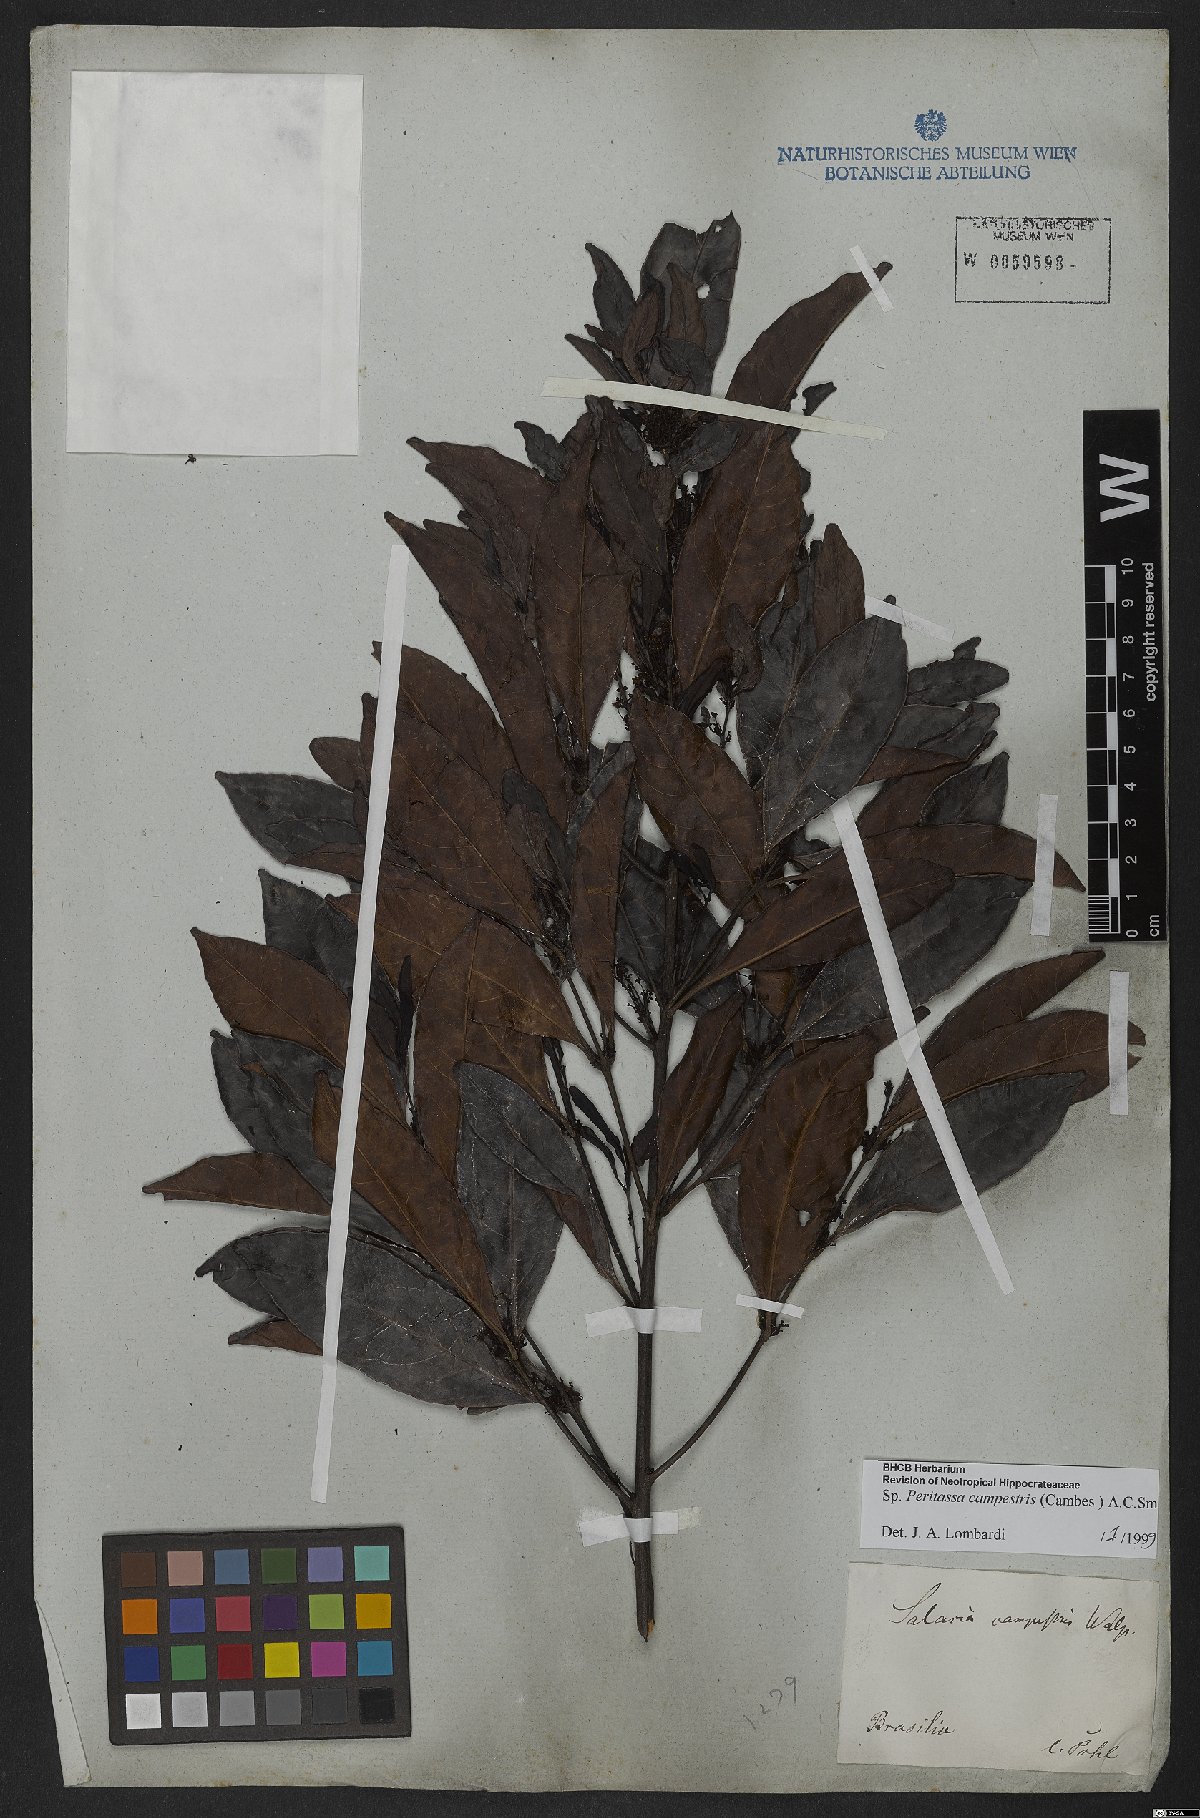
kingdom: Plantae
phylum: Tracheophyta
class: Magnoliopsida
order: Celastrales
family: Celastraceae
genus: Peritassa
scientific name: Peritassa campestris
